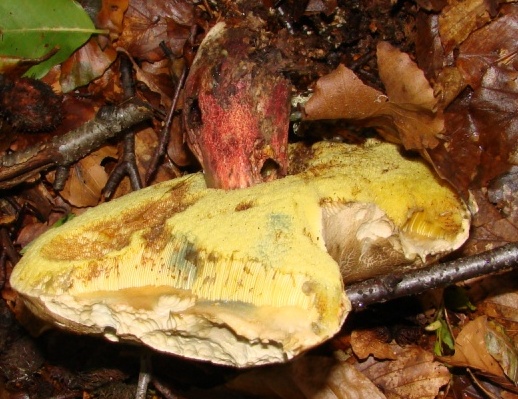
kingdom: Fungi
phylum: Basidiomycota
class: Agaricomycetes
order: Boletales
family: Boletaceae
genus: Caloboletus
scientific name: Caloboletus calopus
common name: skønfodet rørhat
